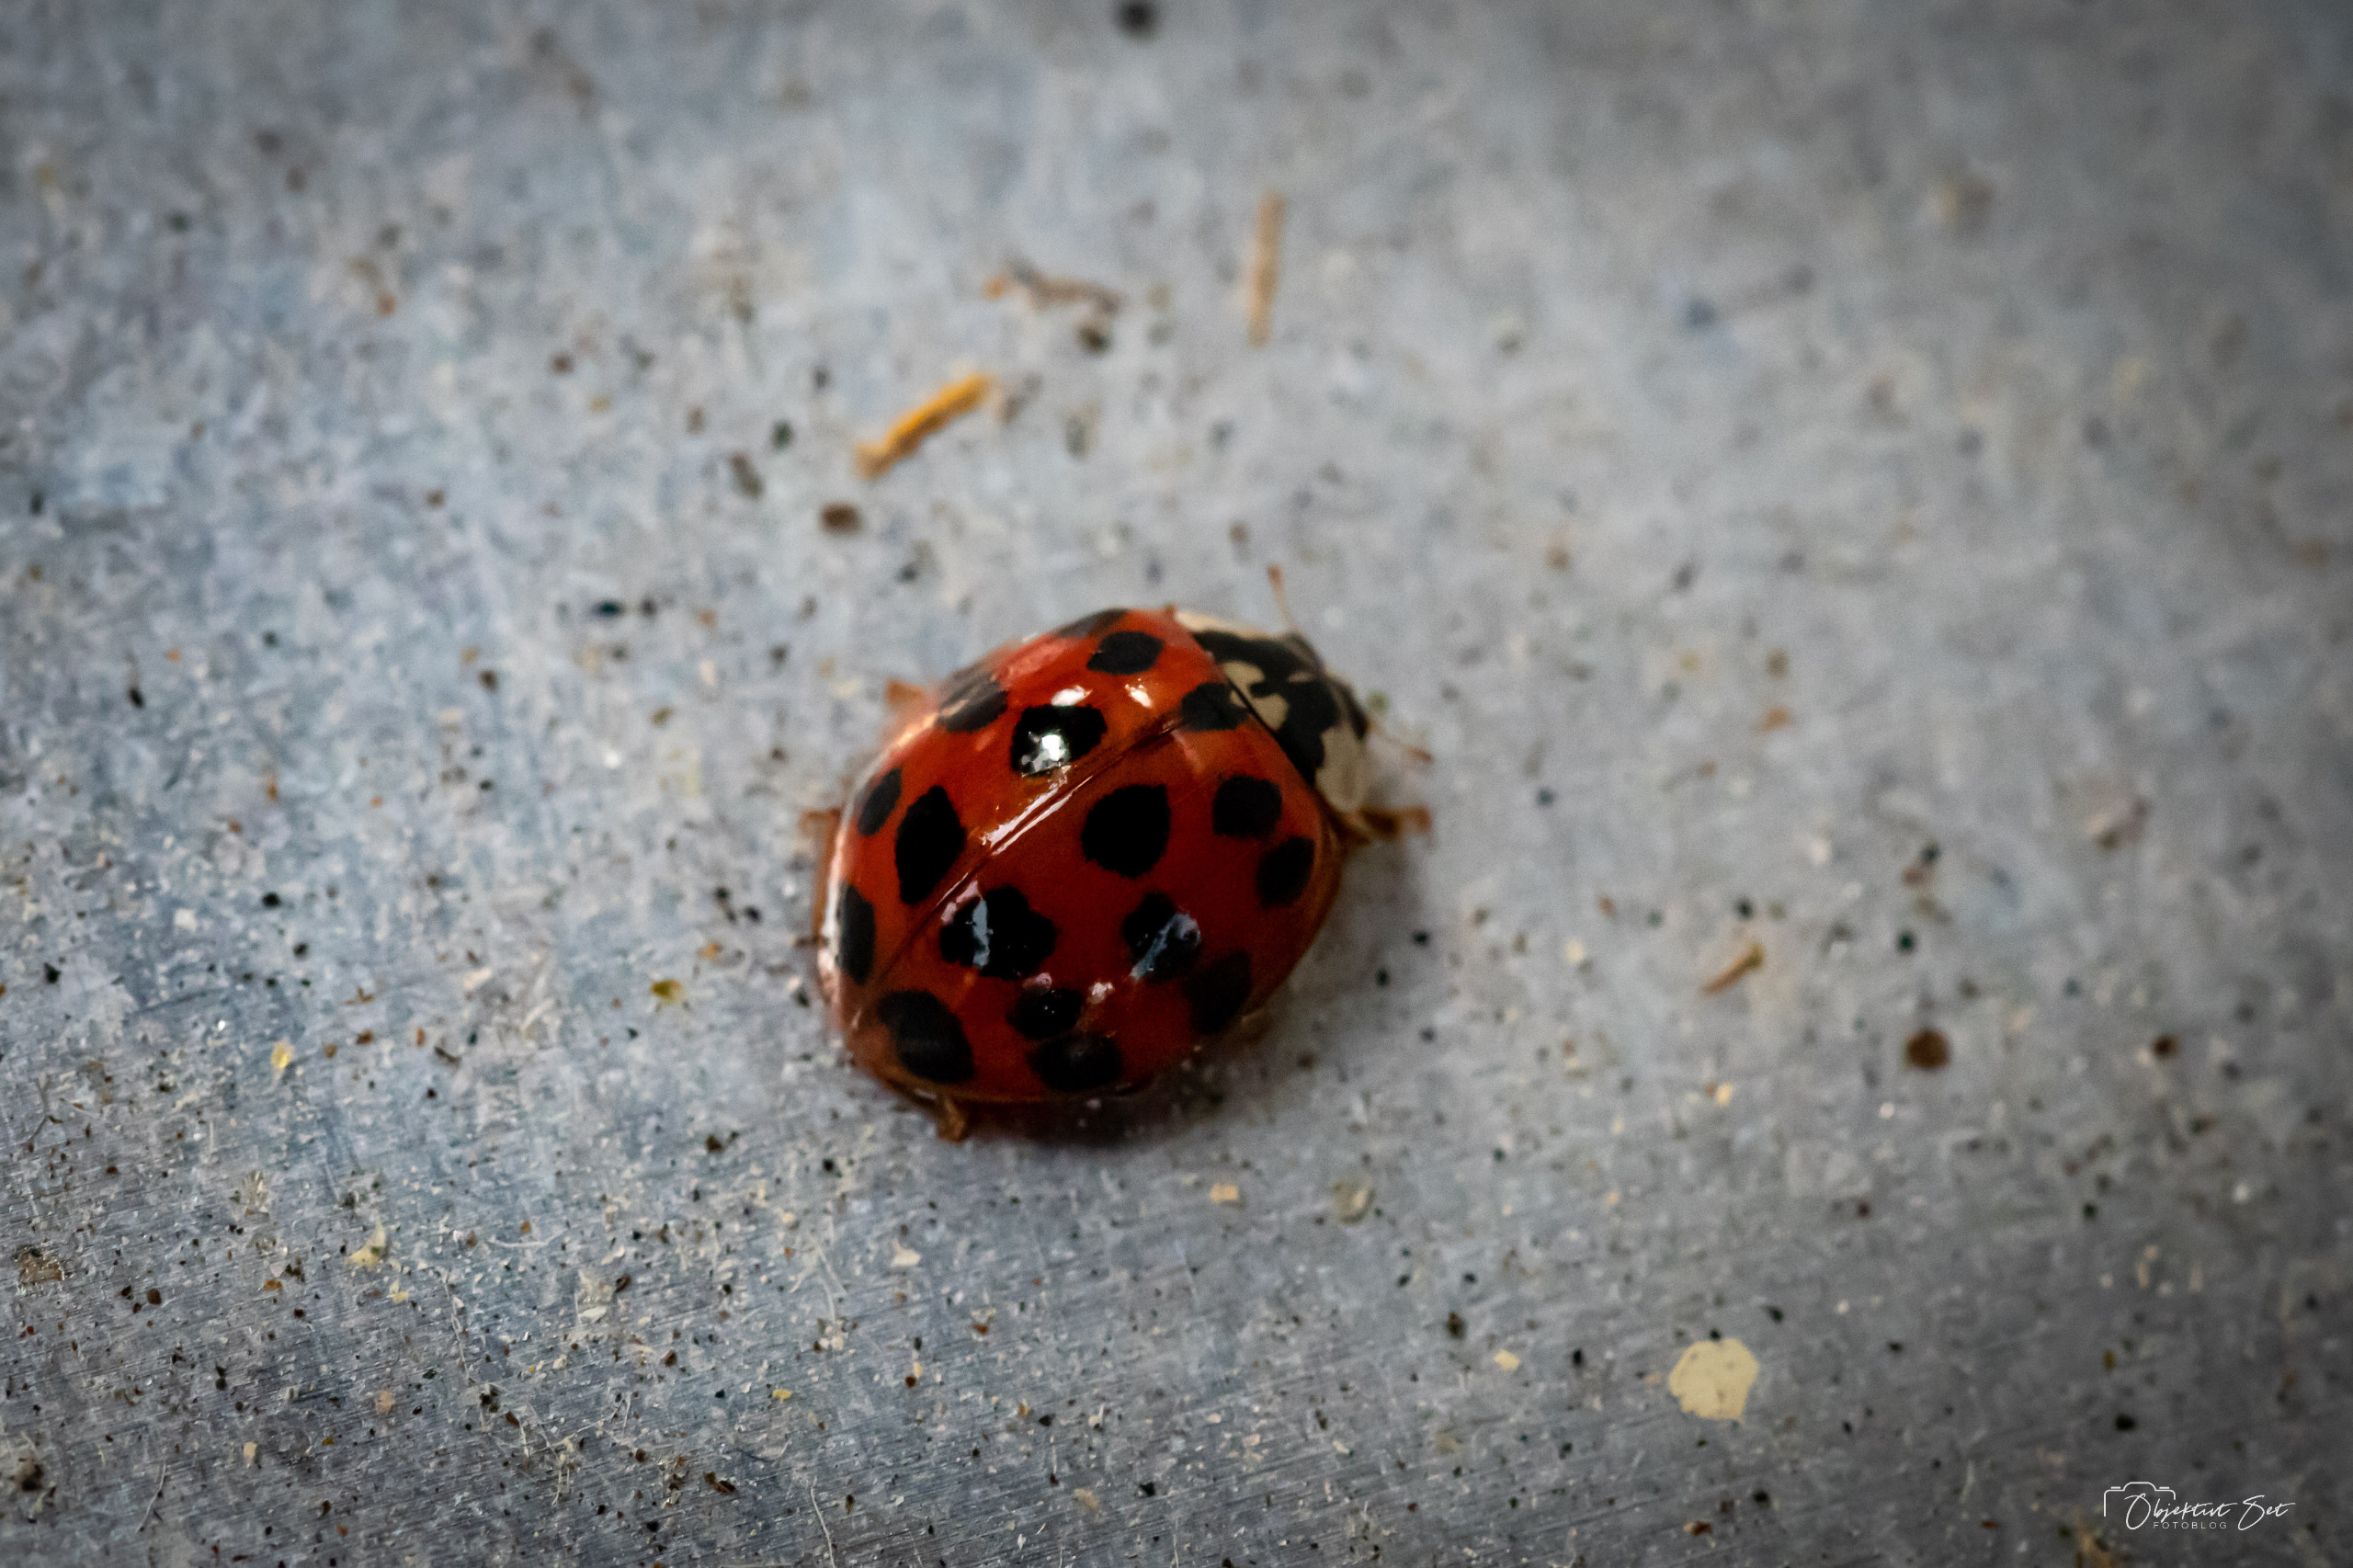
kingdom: Animalia
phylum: Arthropoda
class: Insecta
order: Coleoptera
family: Coccinellidae
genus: Harmonia
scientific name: Harmonia axyridis
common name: Harlekinmariehøne
